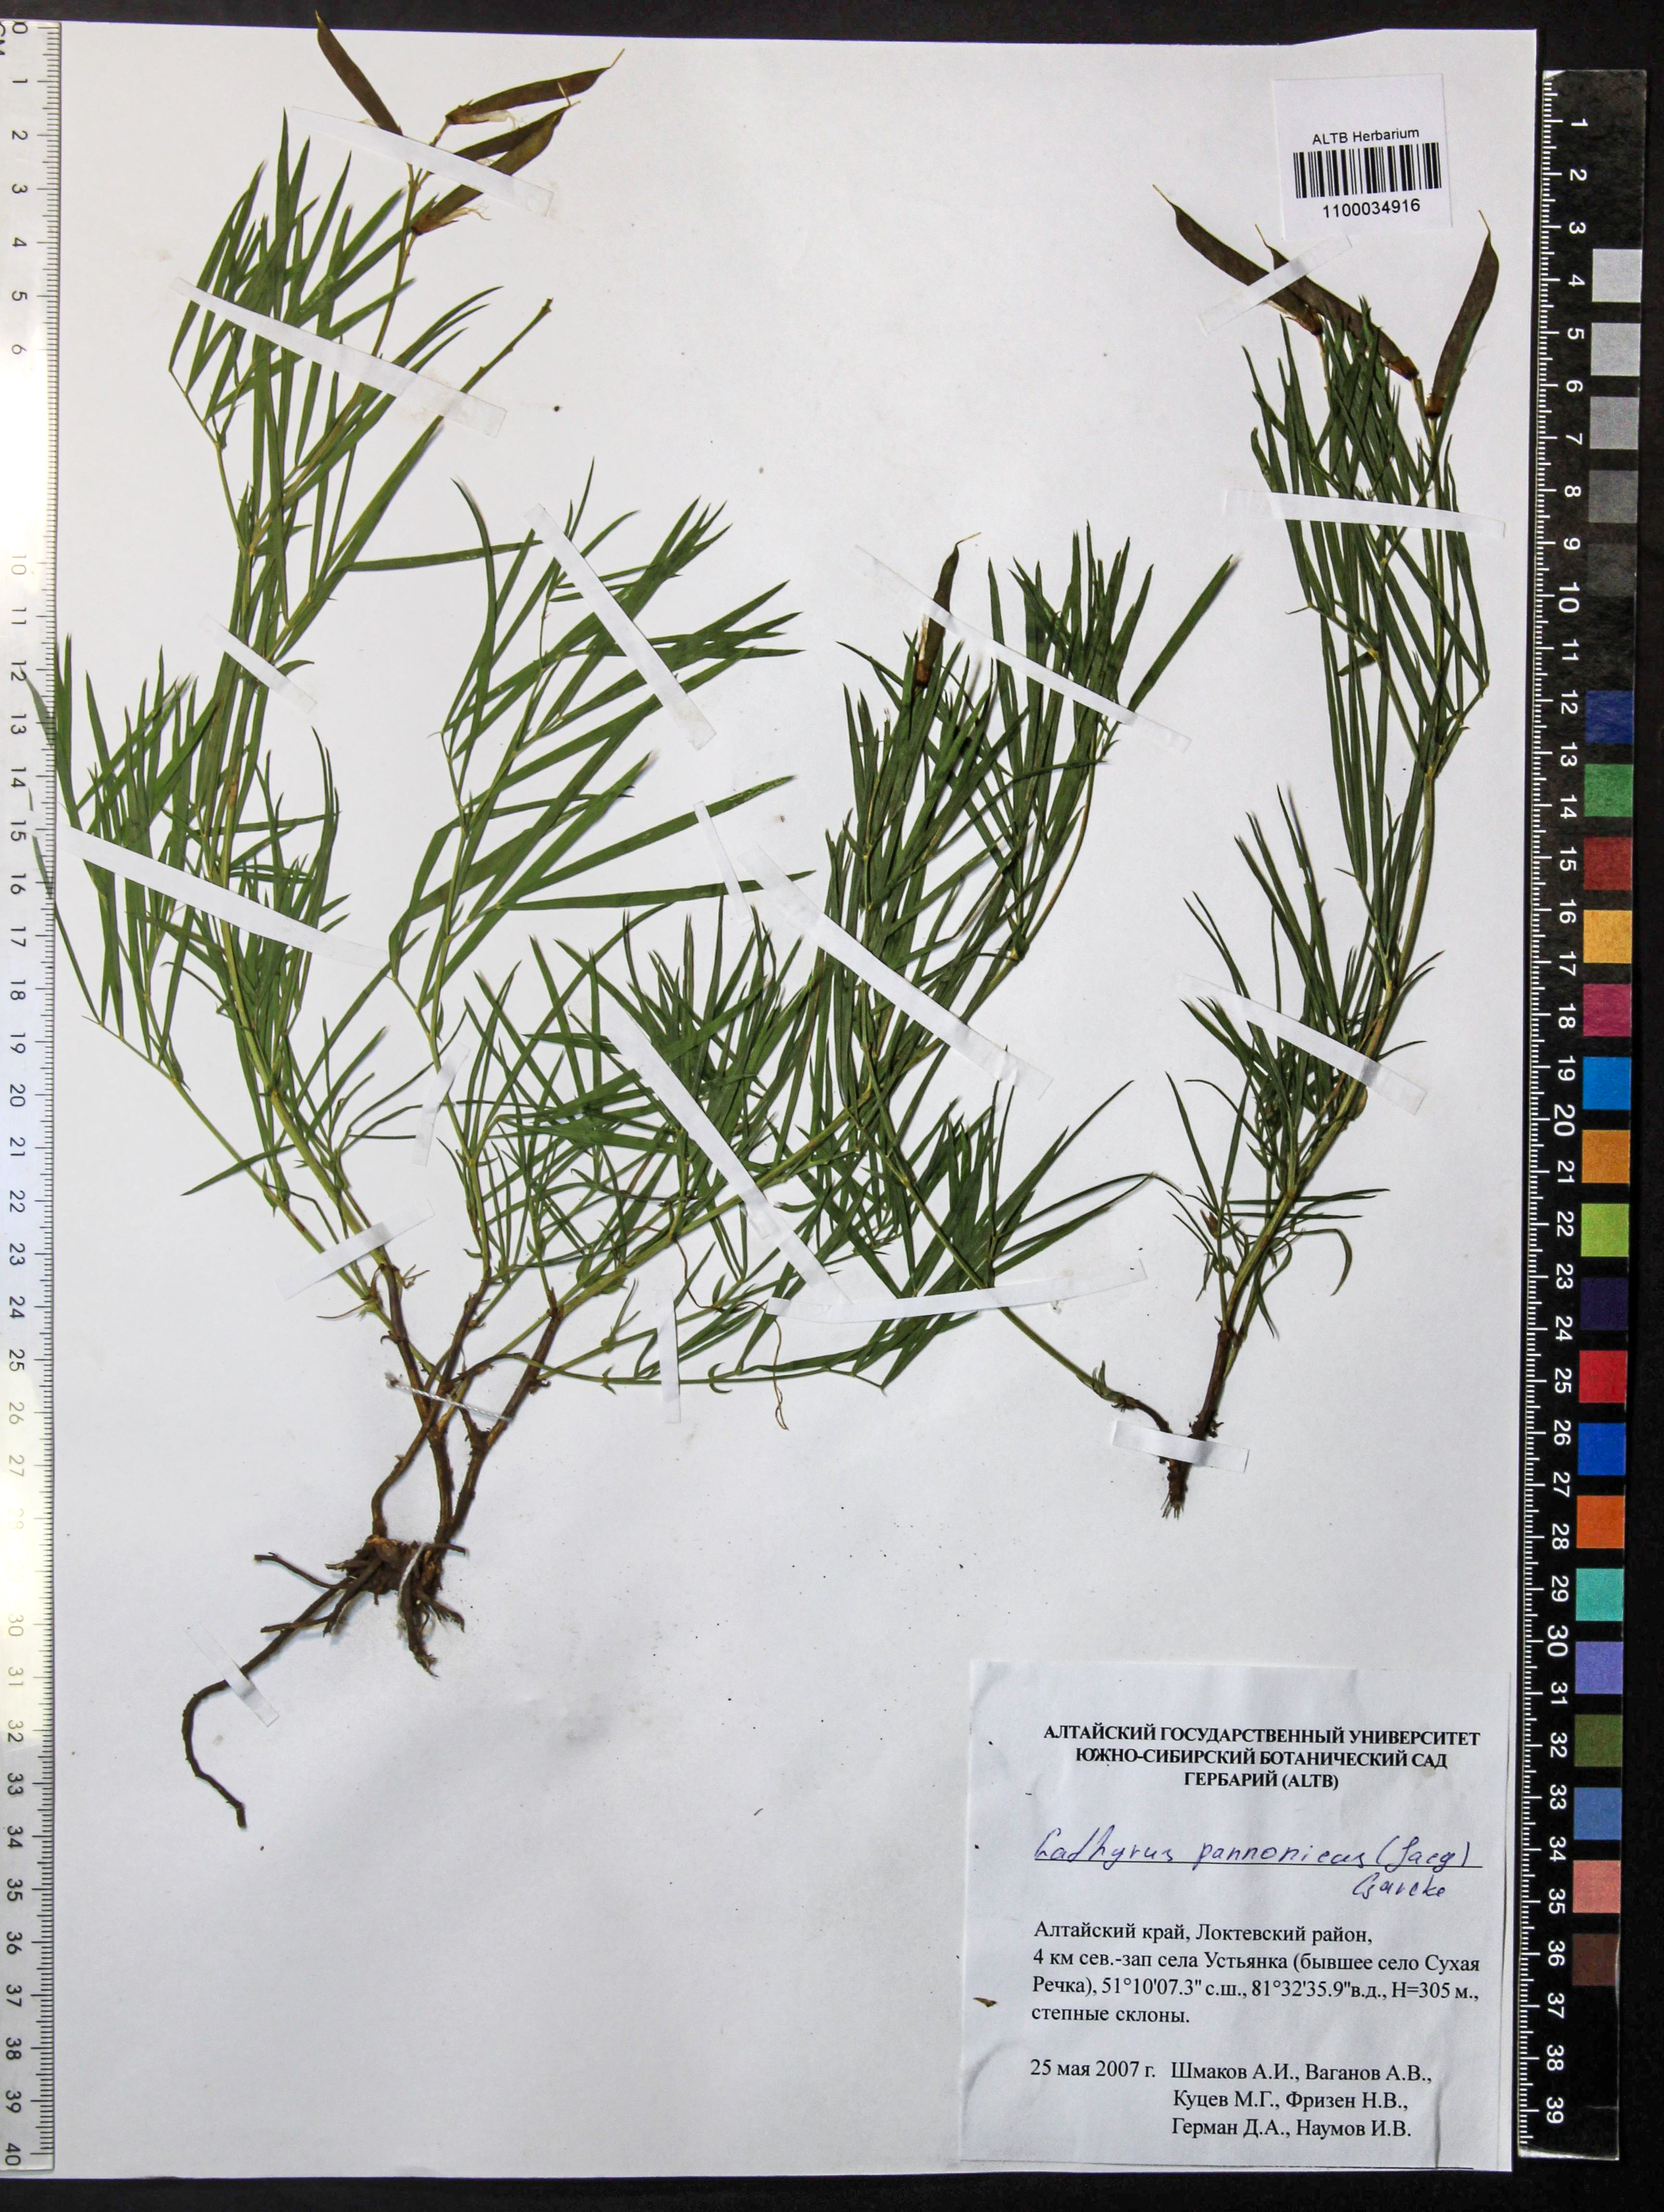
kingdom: Plantae
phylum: Tracheophyta
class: Magnoliopsida
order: Fabales
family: Fabaceae
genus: Lathyrus
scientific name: Lathyrus pannonicus
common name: Pea
